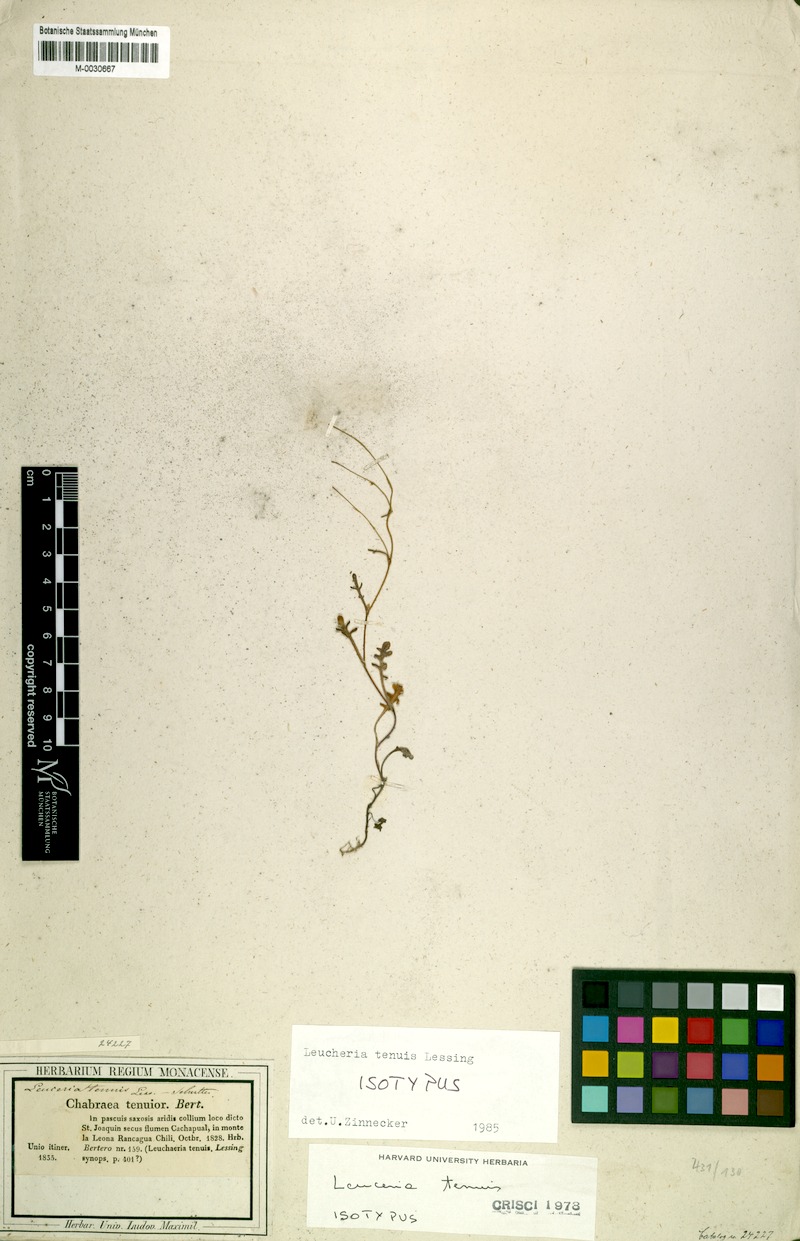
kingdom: Plantae
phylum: Tracheophyta
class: Magnoliopsida
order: Asterales
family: Asteraceae
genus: Leucheria
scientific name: Leucheria tenuis
